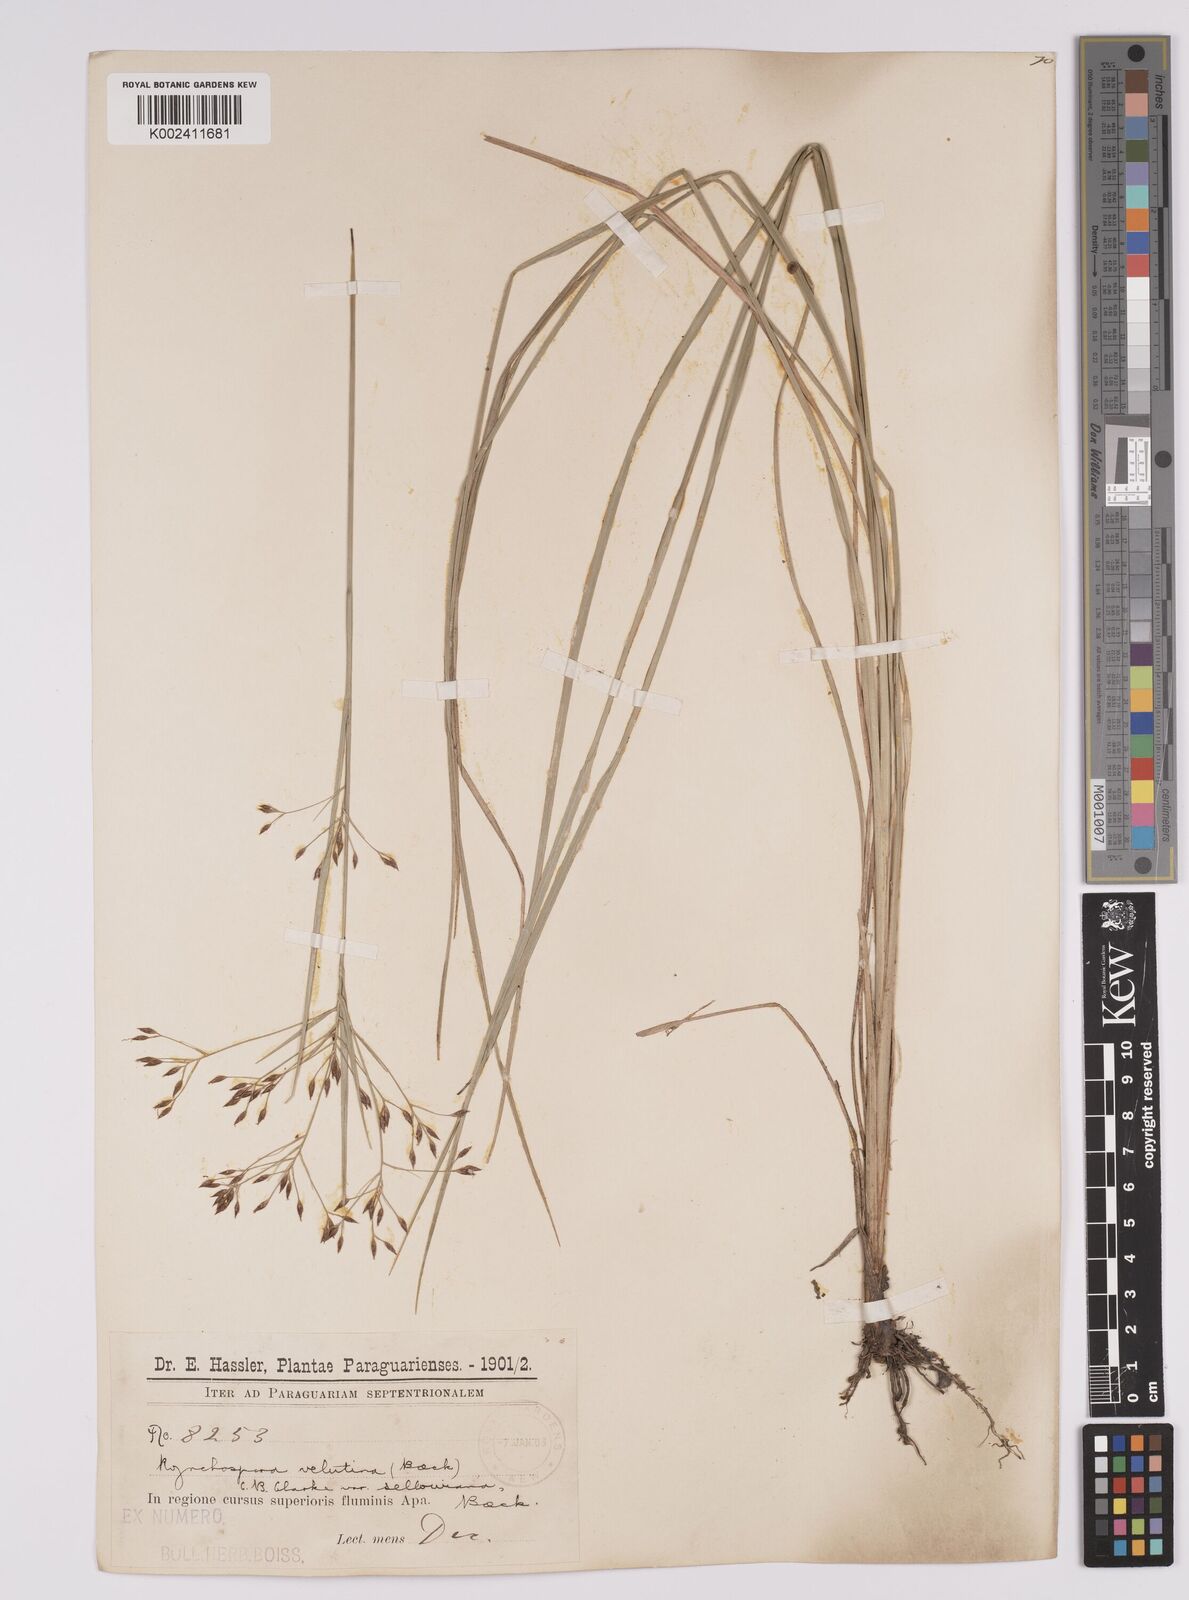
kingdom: Plantae
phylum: Tracheophyta
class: Liliopsida
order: Poales
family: Cyperaceae
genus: Rhynchospora
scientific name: Rhynchospora velutina
